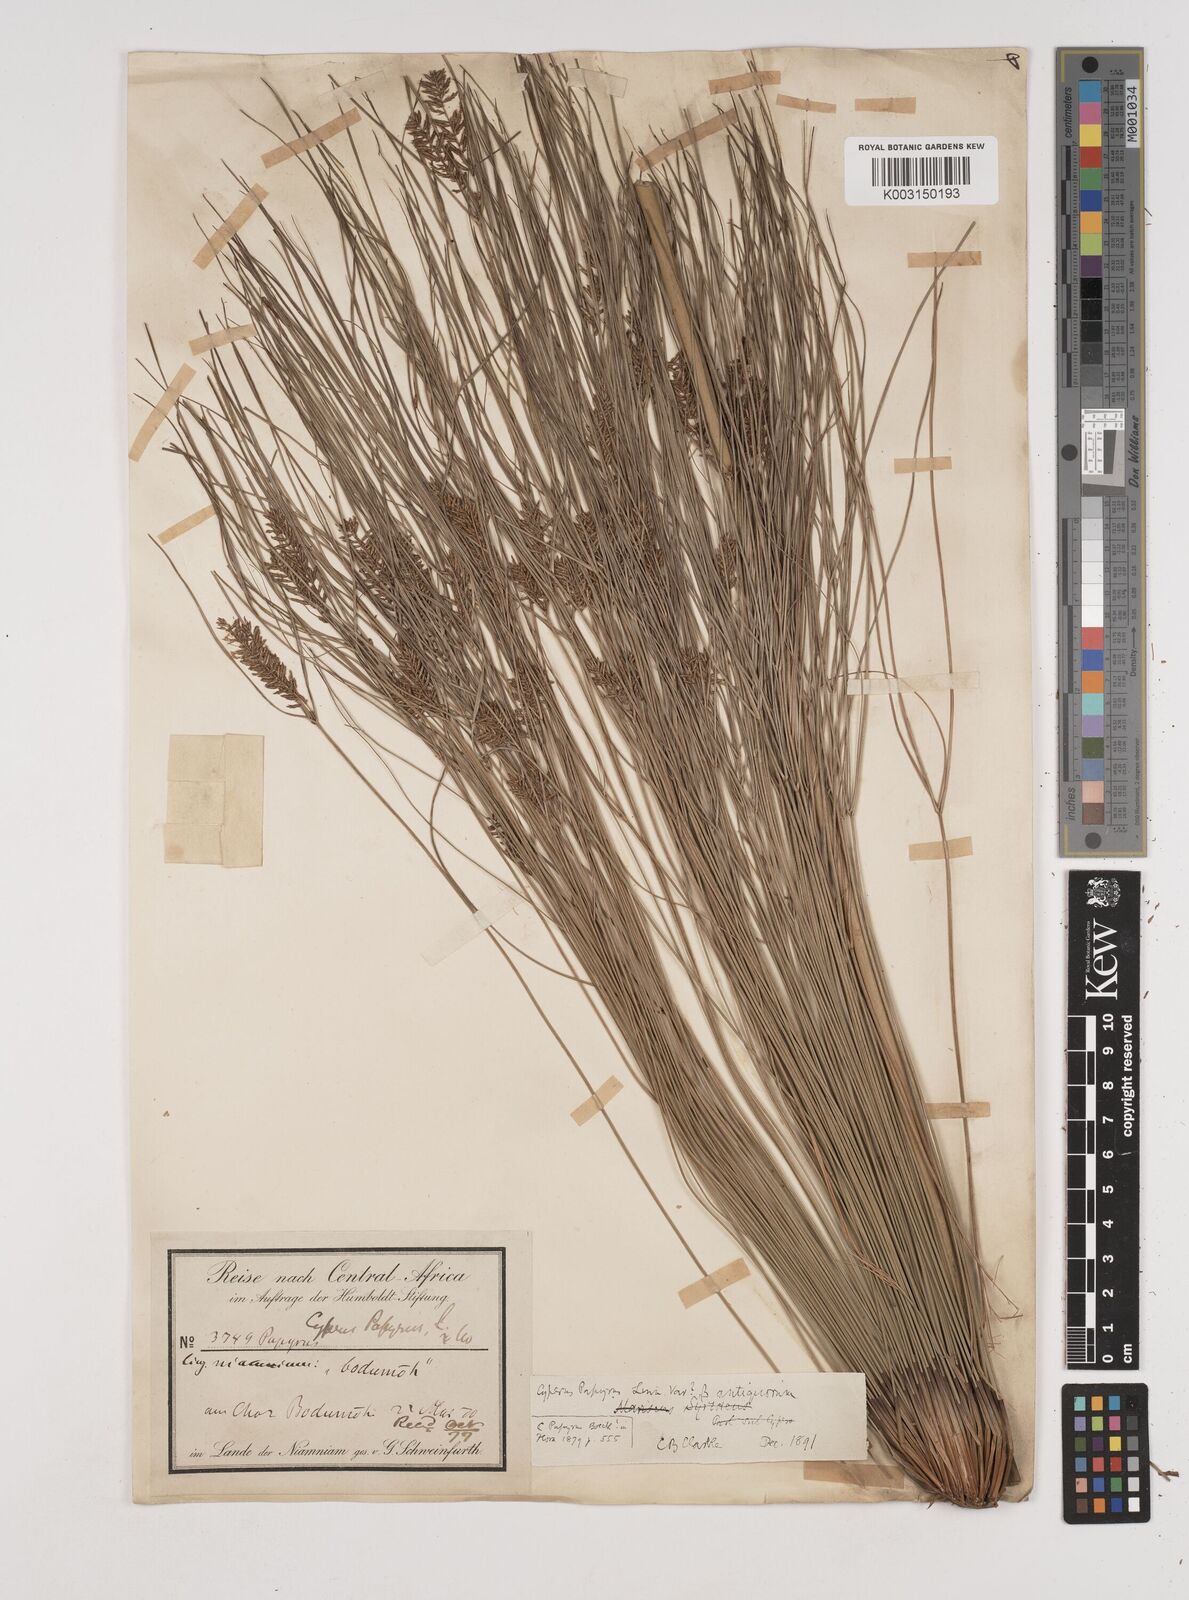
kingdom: Plantae
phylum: Tracheophyta
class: Liliopsida
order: Poales
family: Cyperaceae
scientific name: Cyperaceae
